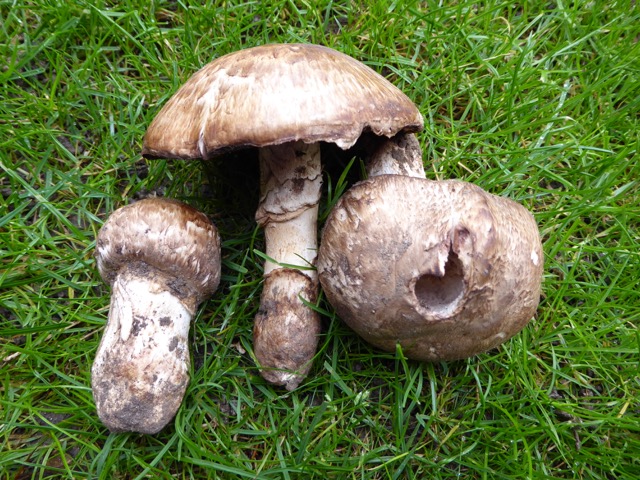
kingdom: Fungi
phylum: Basidiomycota
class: Agaricomycetes
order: Agaricales
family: Agaricaceae
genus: Agaricus
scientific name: Agaricus subperonatus
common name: knippe-champignon
